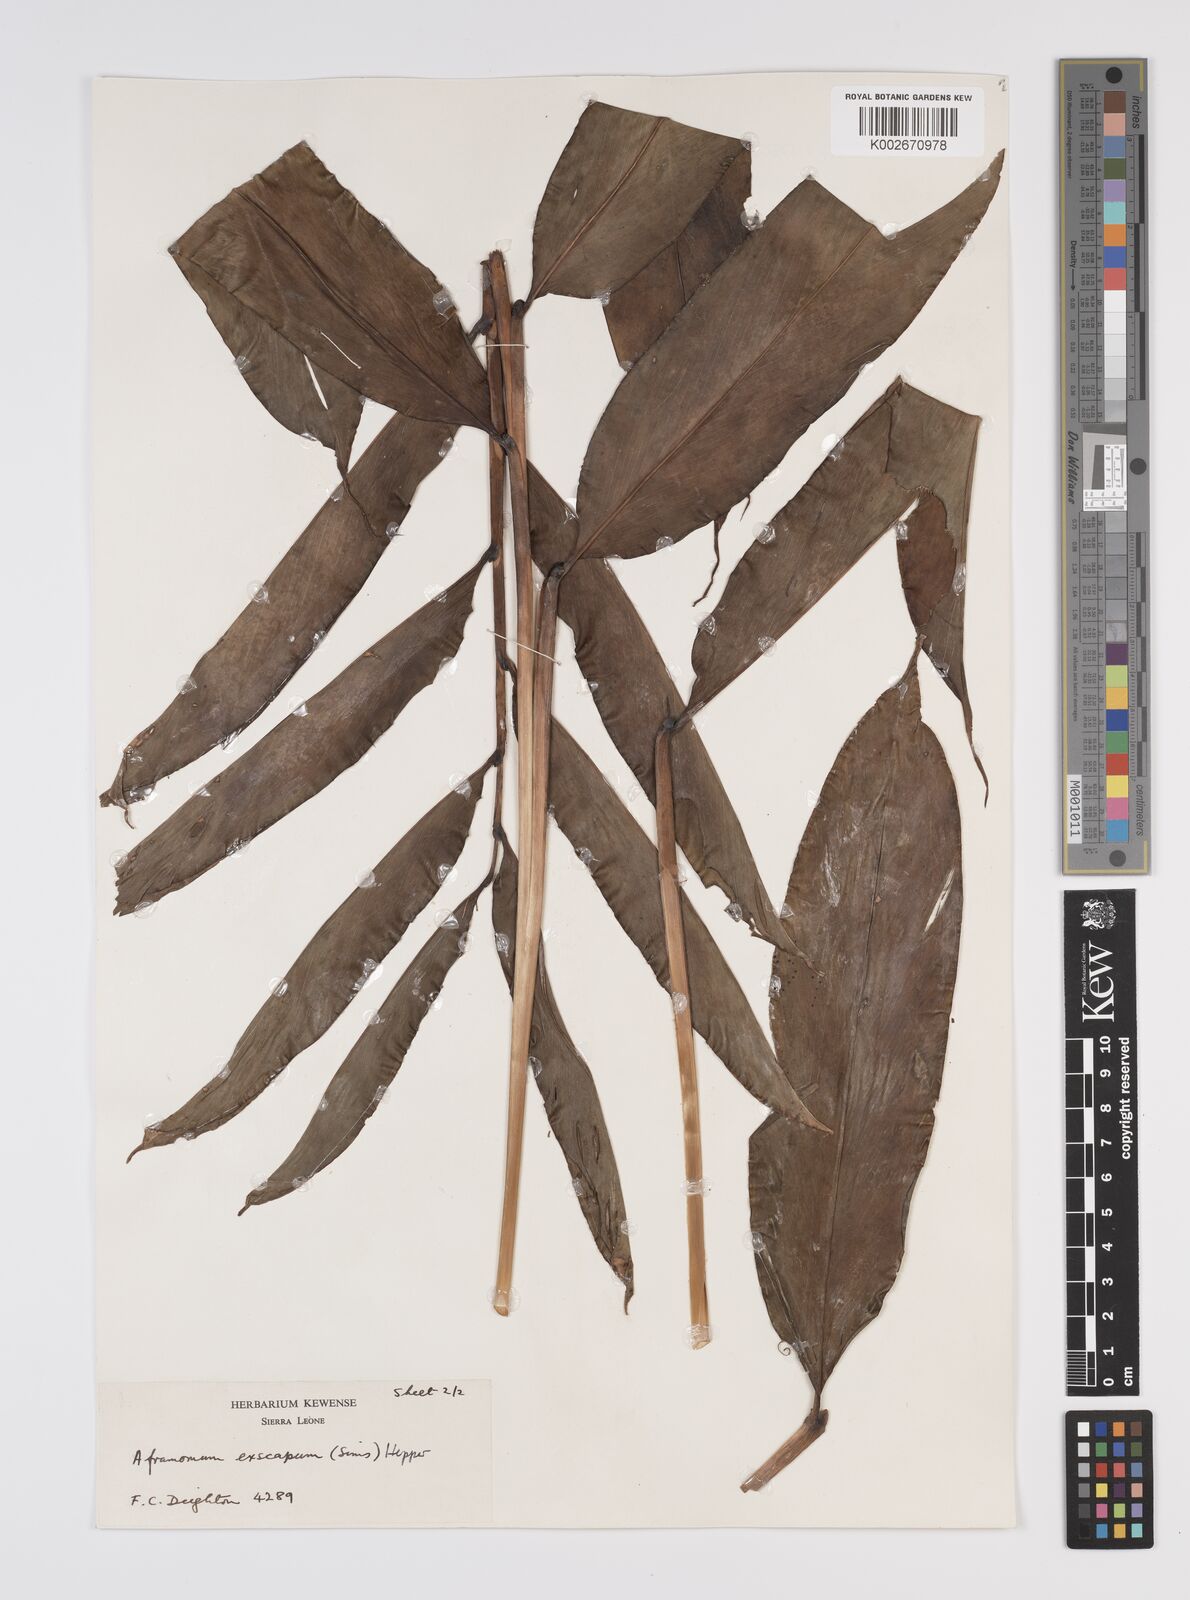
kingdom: Plantae
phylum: Tracheophyta
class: Liliopsida
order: Zingiberales
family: Zingiberaceae
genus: Aframomum
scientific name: Aframomum exscapum
